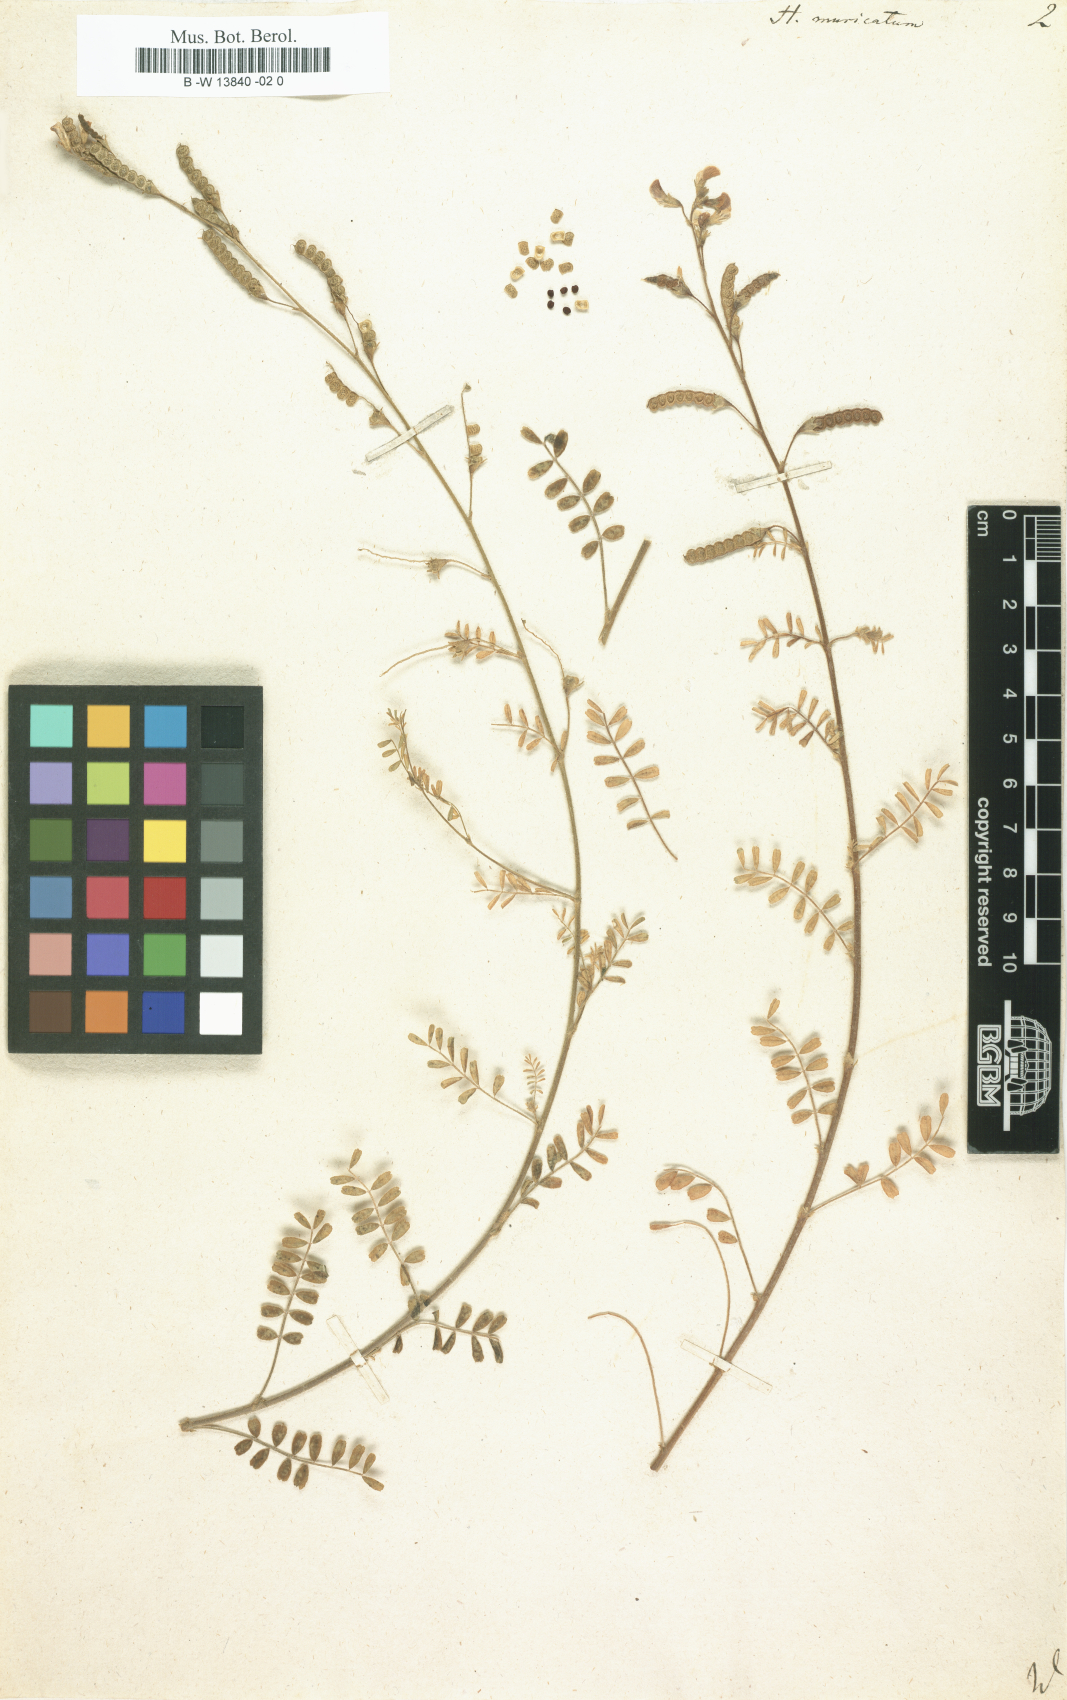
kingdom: Plantae
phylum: Tracheophyta
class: Magnoliopsida
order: Fabales
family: Fabaceae
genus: Adesmia
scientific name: Adesmia muricata
